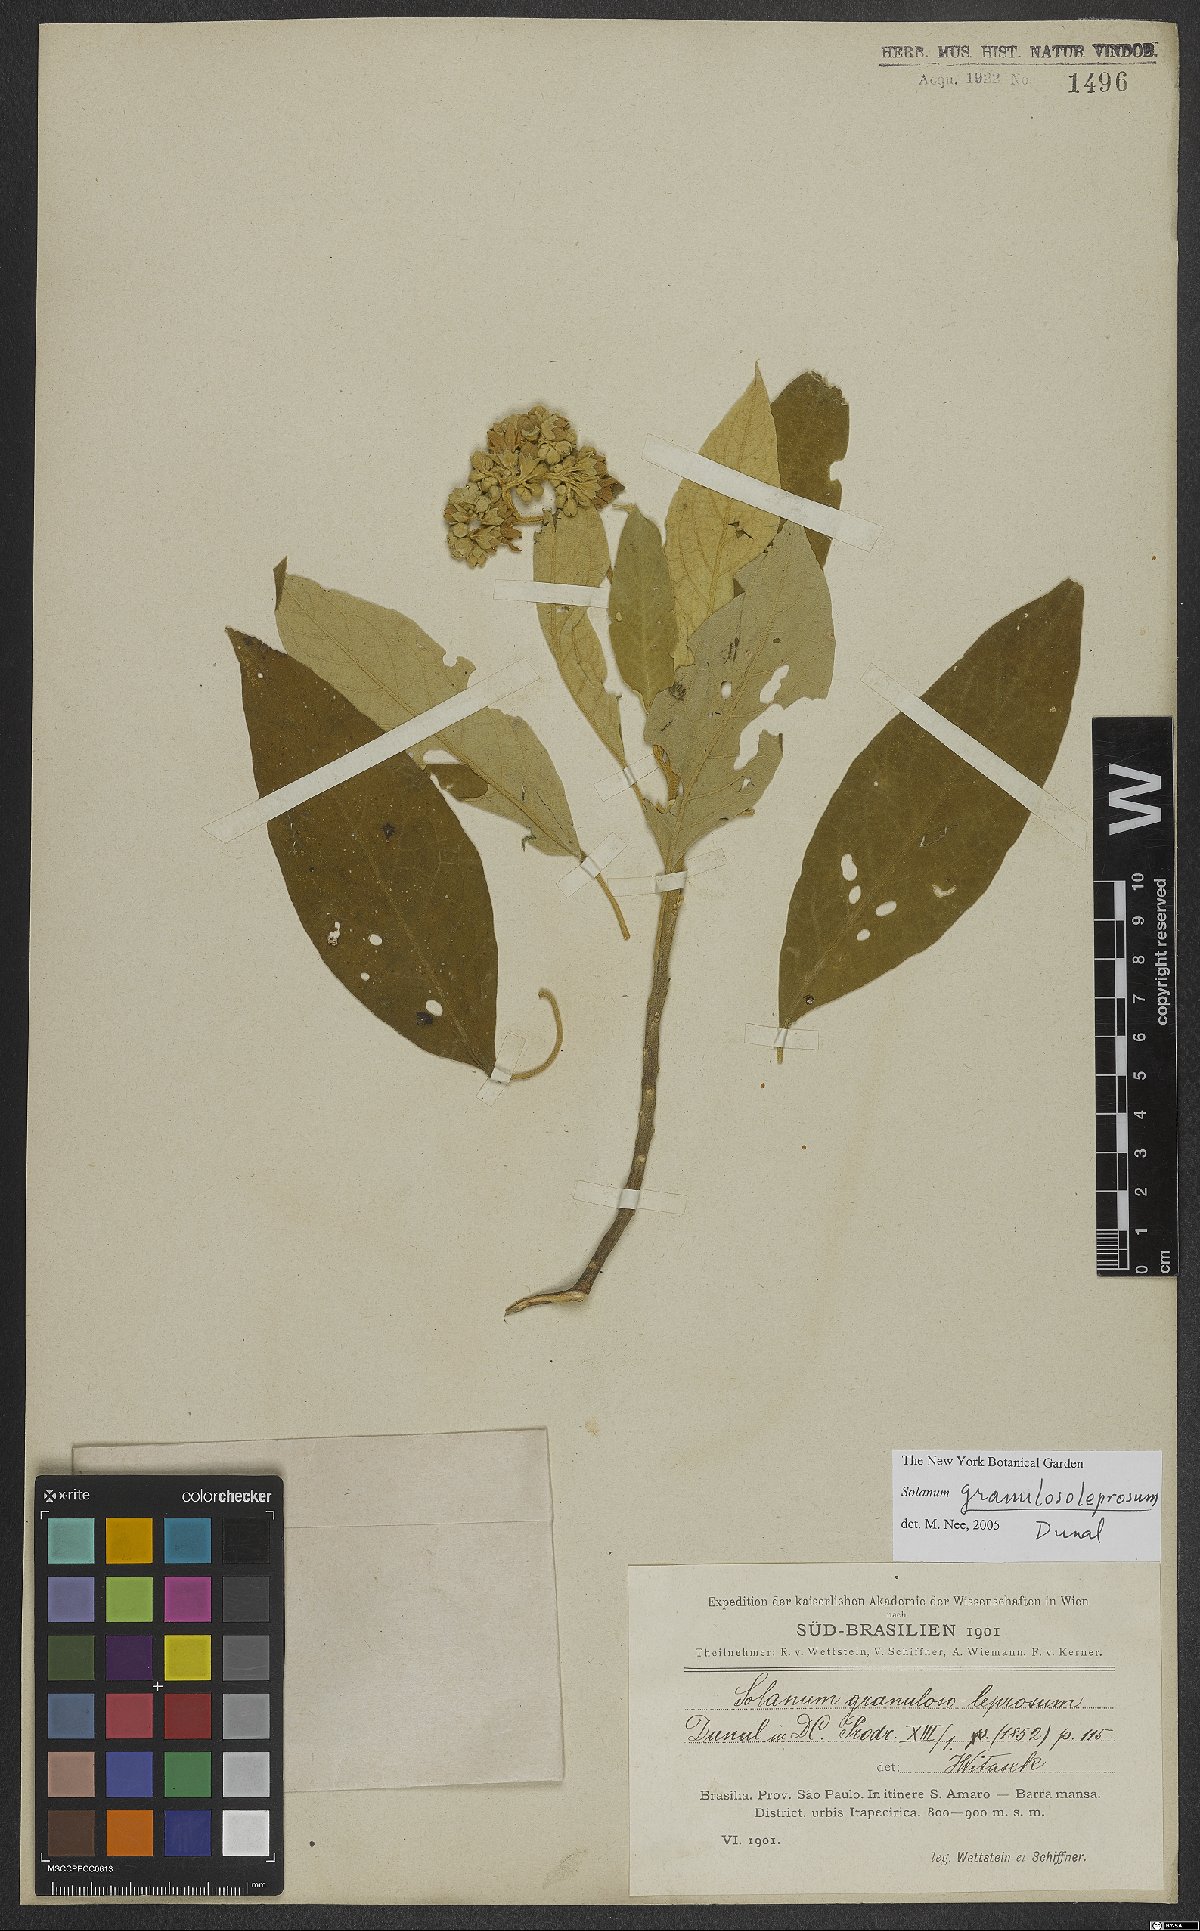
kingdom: Plantae
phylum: Tracheophyta
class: Magnoliopsida
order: Solanales
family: Solanaceae
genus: Solanum
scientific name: Solanum granulosoleprosum
